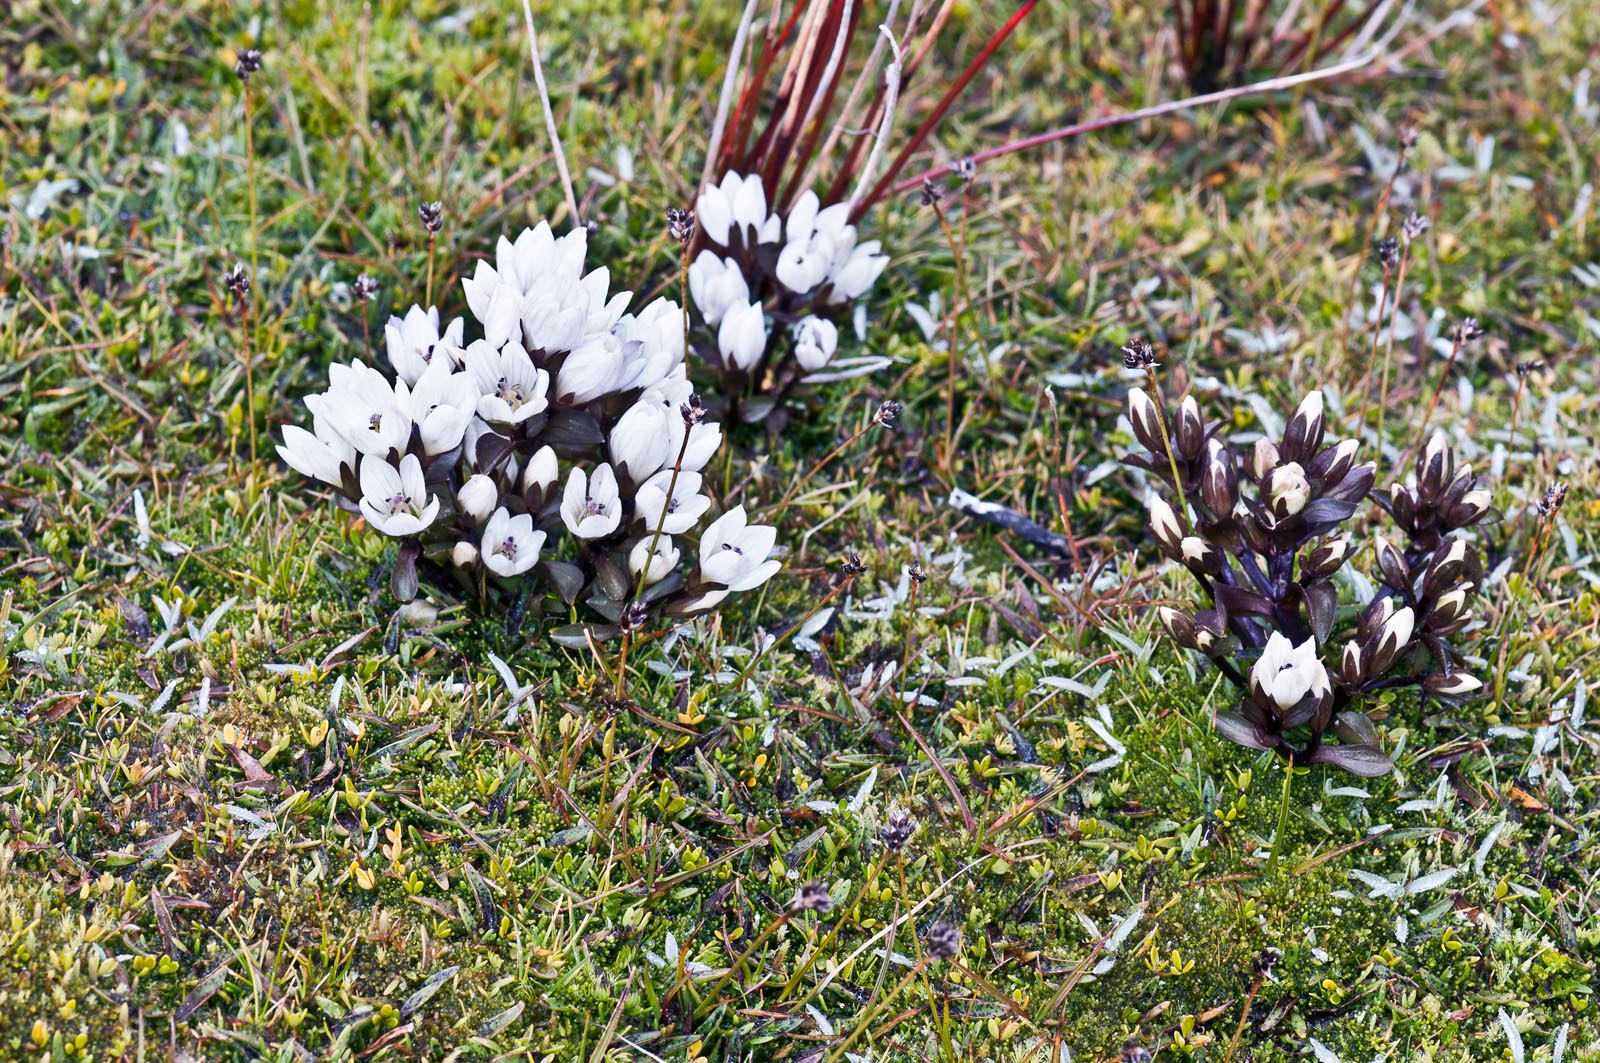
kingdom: Plantae
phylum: Tracheophyta
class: Magnoliopsida
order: Gentianales
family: Gentianaceae
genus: Gentianella
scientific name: Gentianella montana
